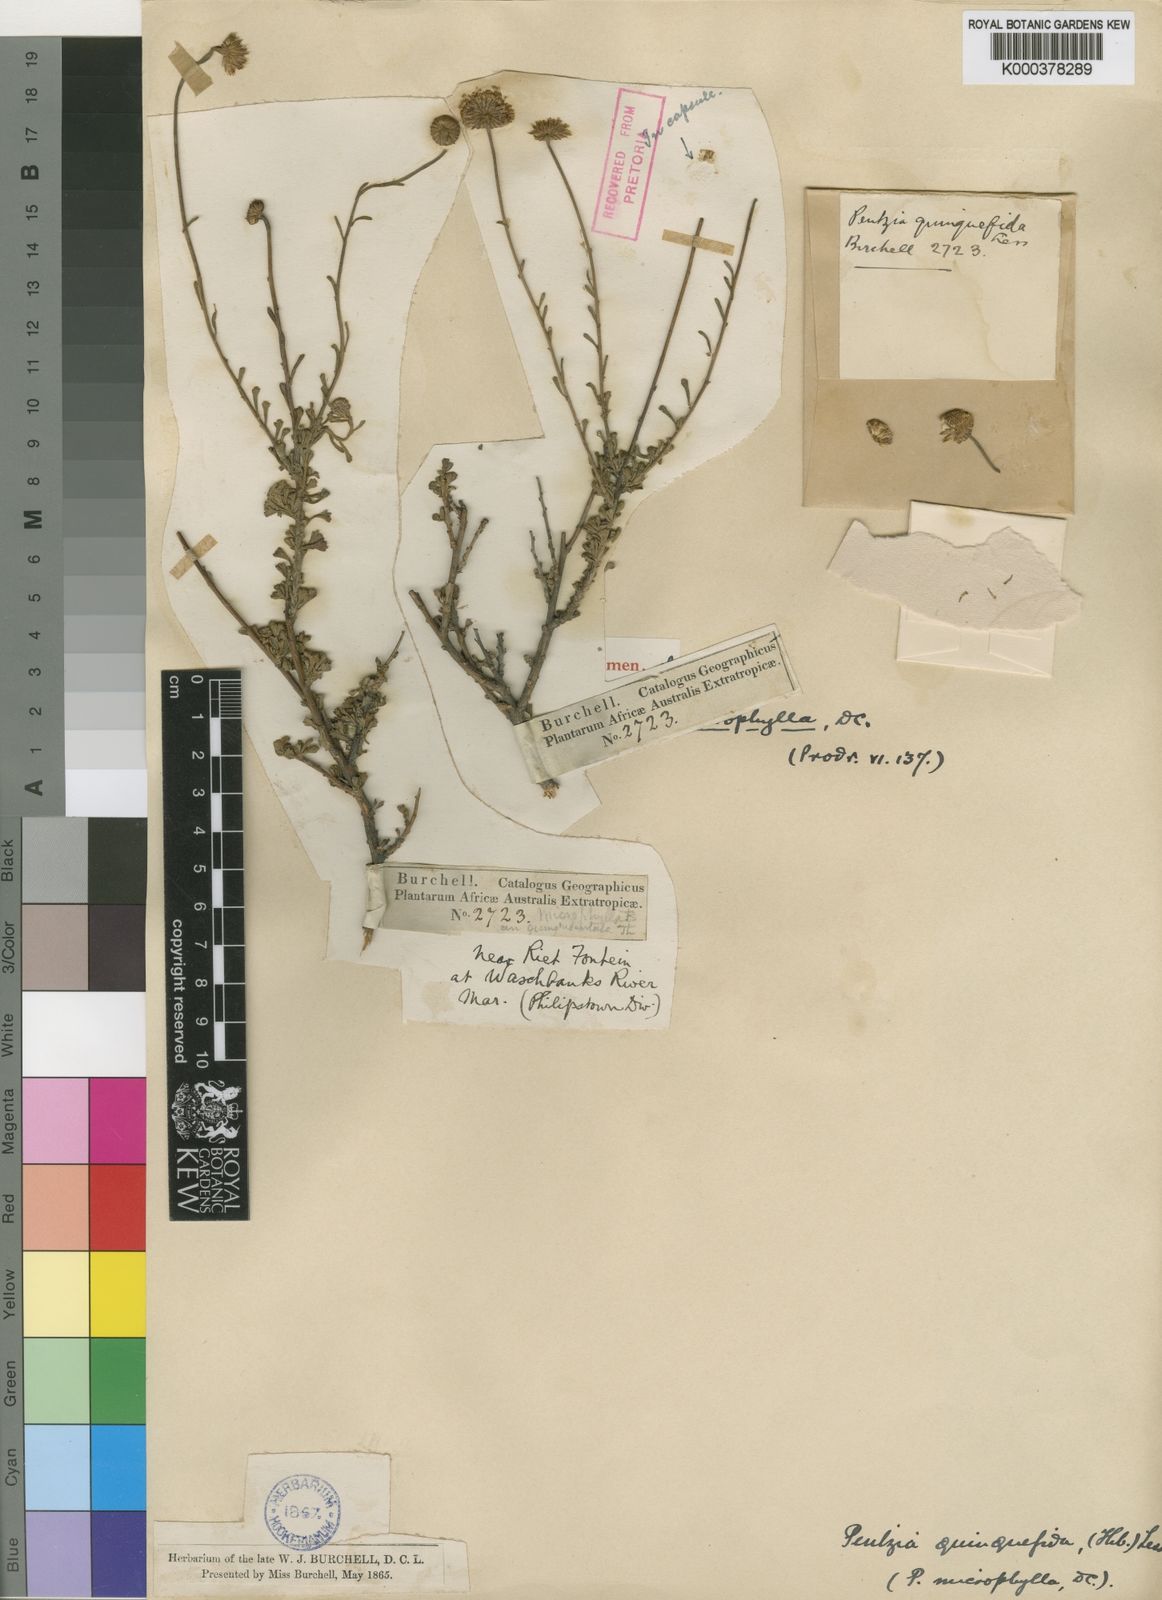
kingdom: Plantae
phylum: Tracheophyta
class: Magnoliopsida
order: Asterales
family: Asteraceae
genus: Pentzia
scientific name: Pentzia quinquefida
